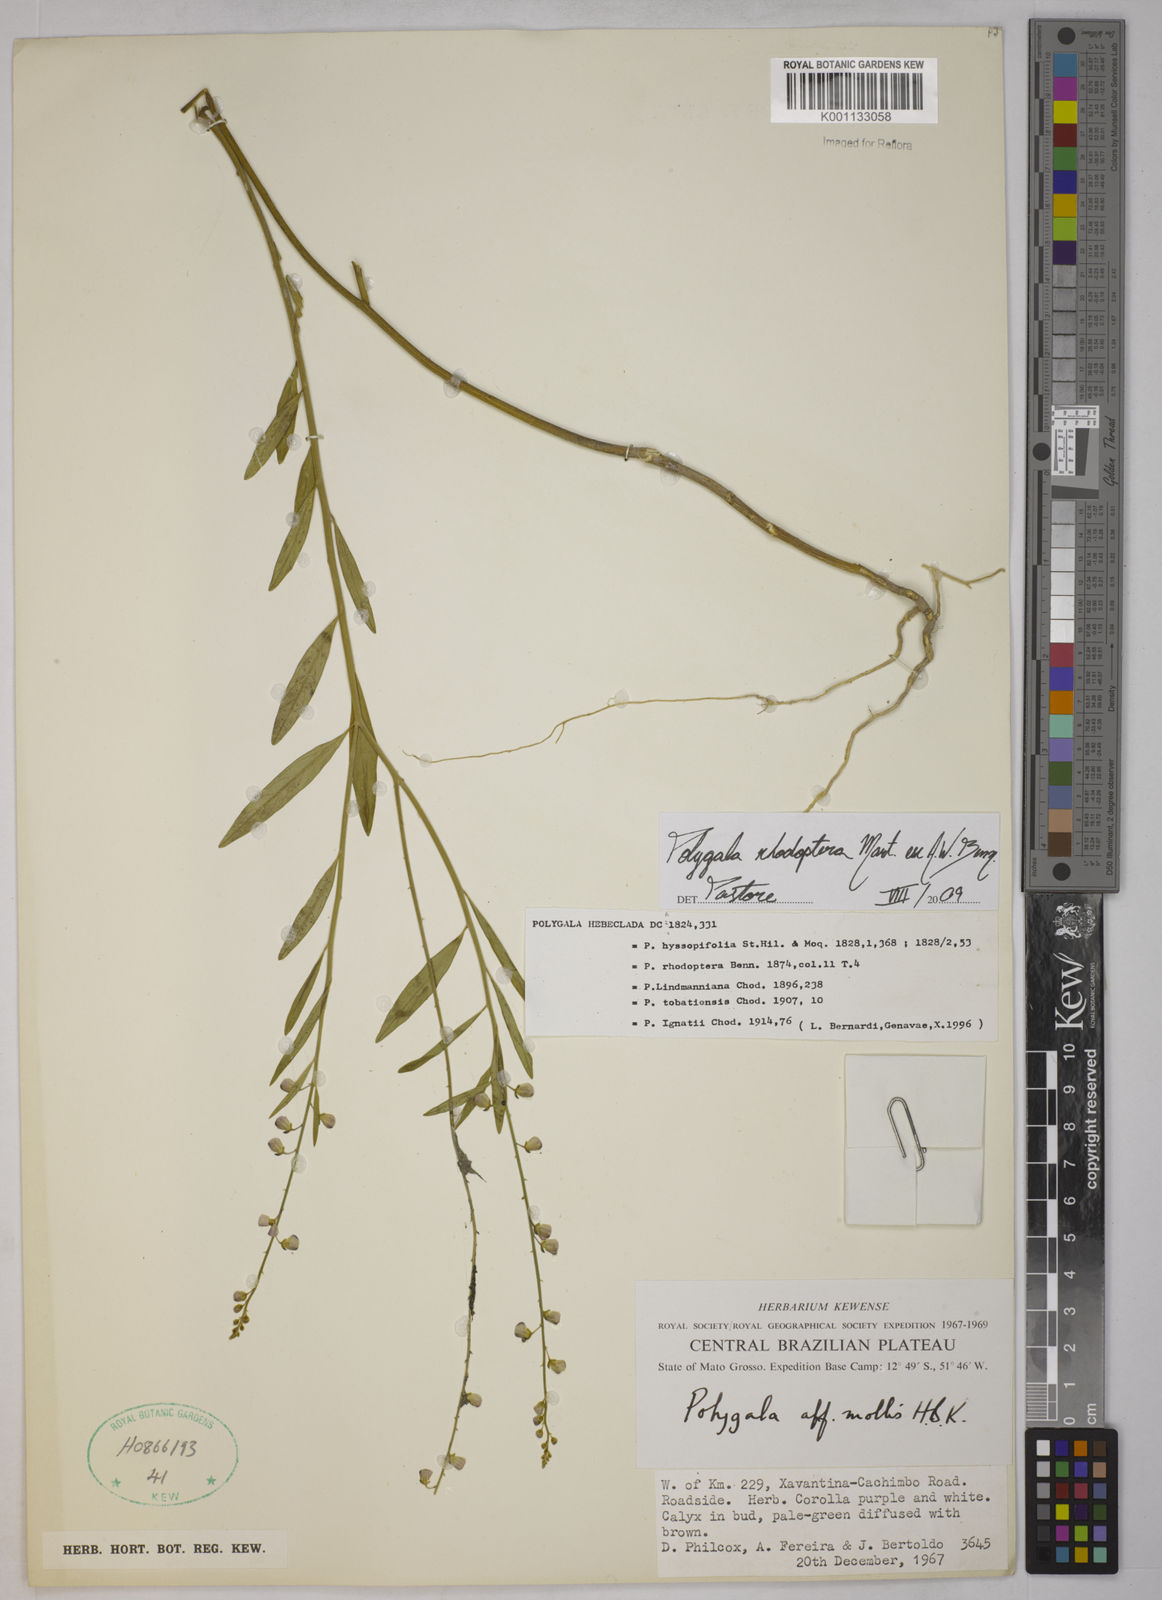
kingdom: Plantae
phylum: Tracheophyta
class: Magnoliopsida
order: Fabales
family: Polygalaceae
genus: Asemeia
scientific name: Asemeia rhodoptera
